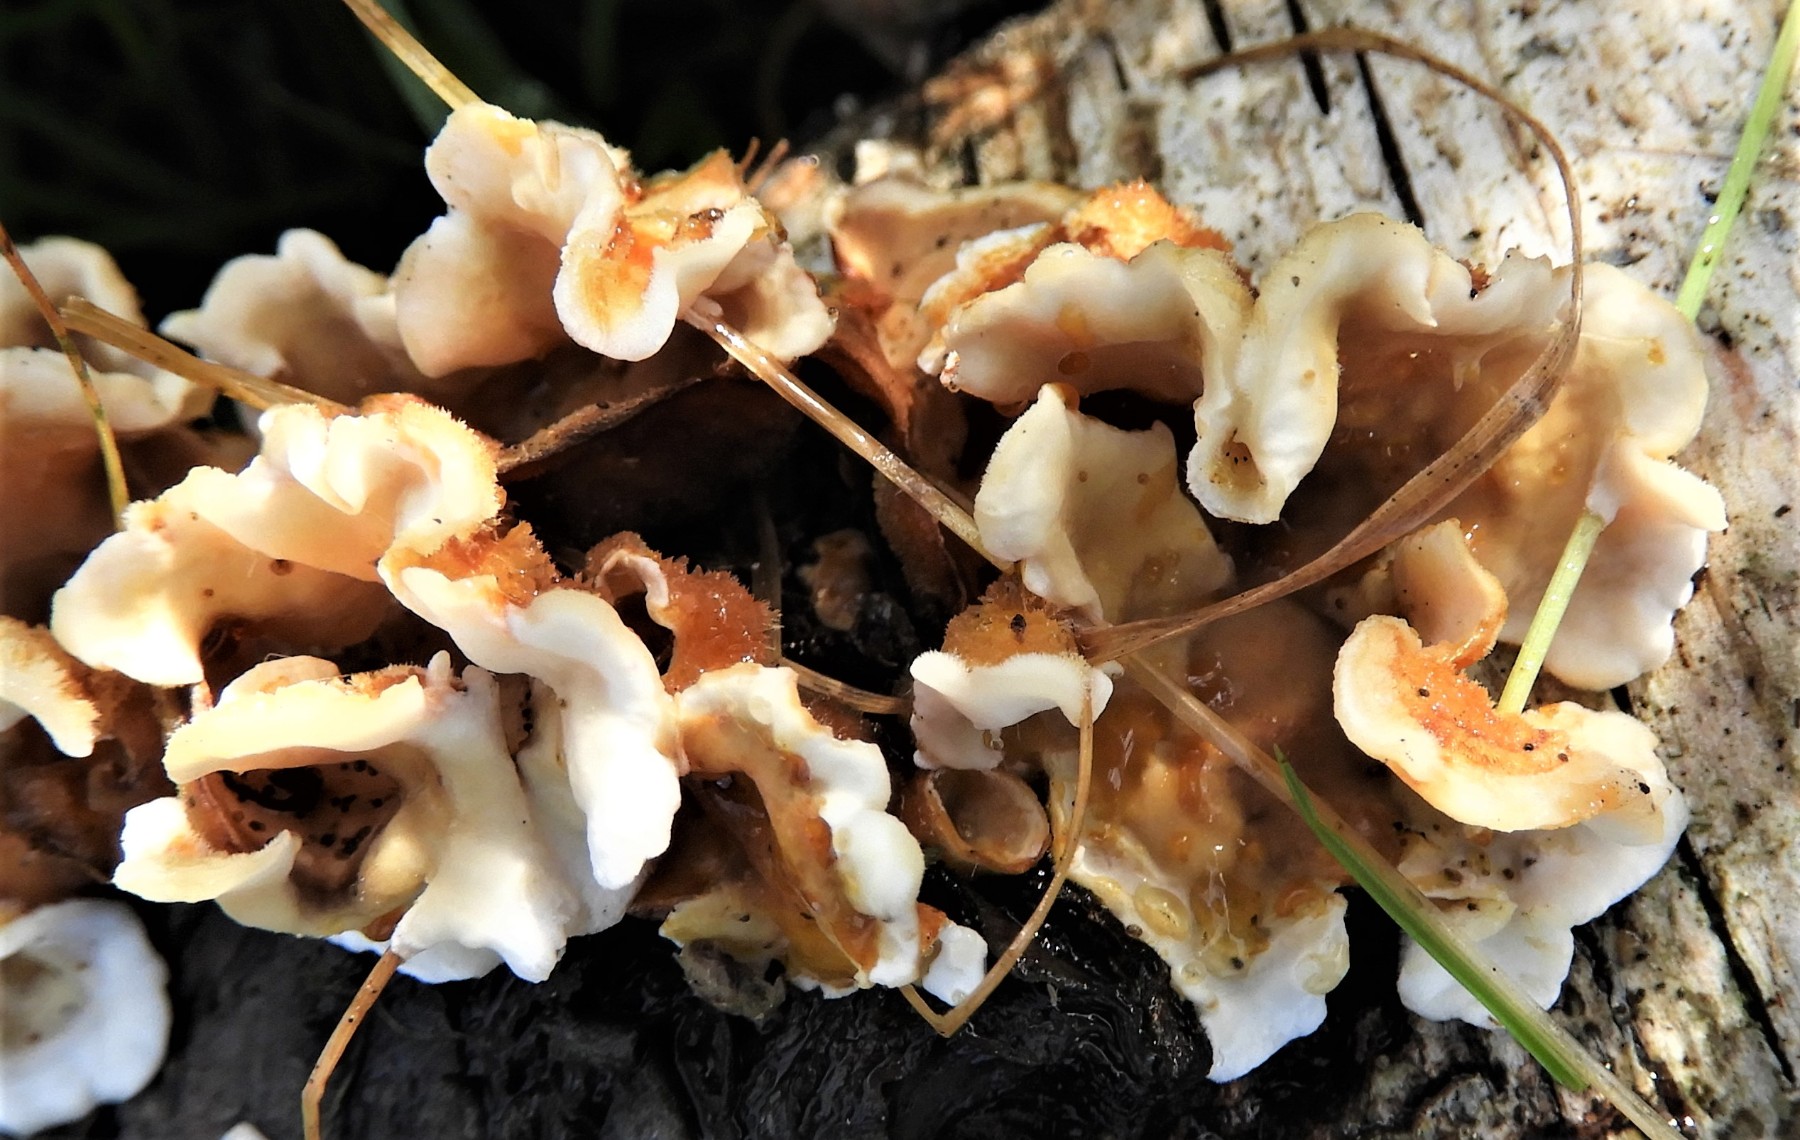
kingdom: Fungi
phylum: Basidiomycota
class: Agaricomycetes
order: Russulales
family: Stereaceae
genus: Stereum
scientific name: Stereum hirsutum
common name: håret lædersvamp
